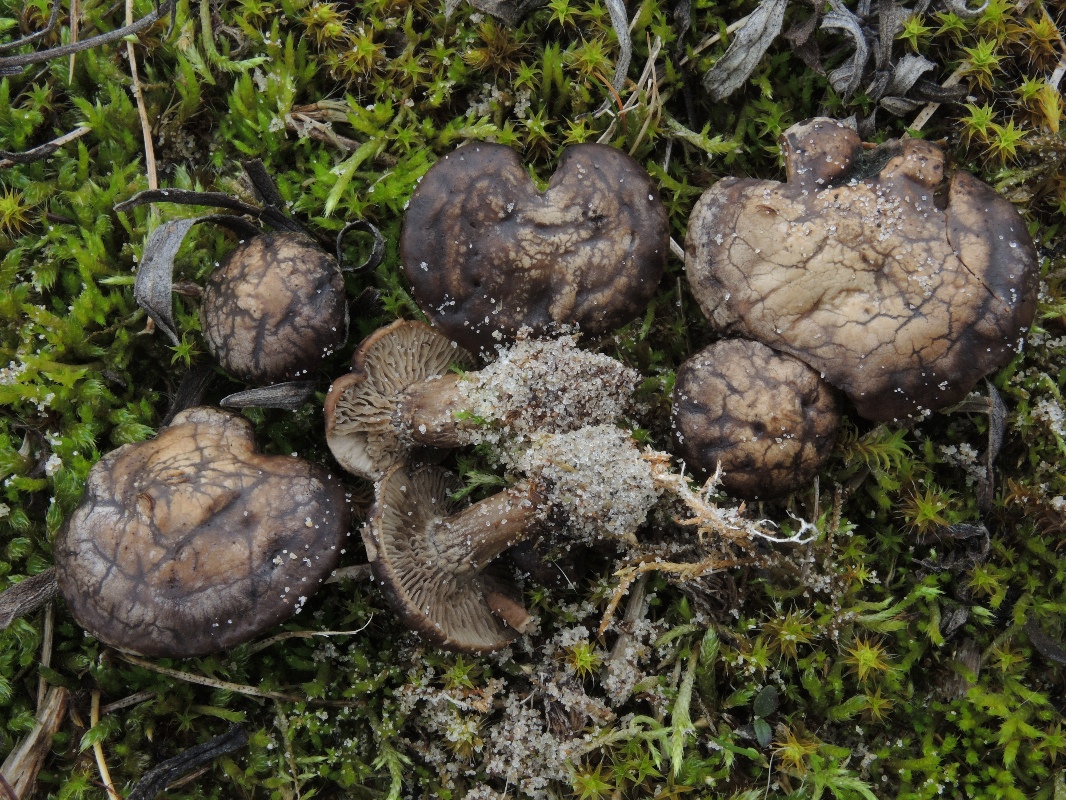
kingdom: Fungi
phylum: Basidiomycota
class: Agaricomycetes
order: Agaricales
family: Tricholomataceae
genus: Lulesia
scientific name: Lulesia
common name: sortnende troldhat
